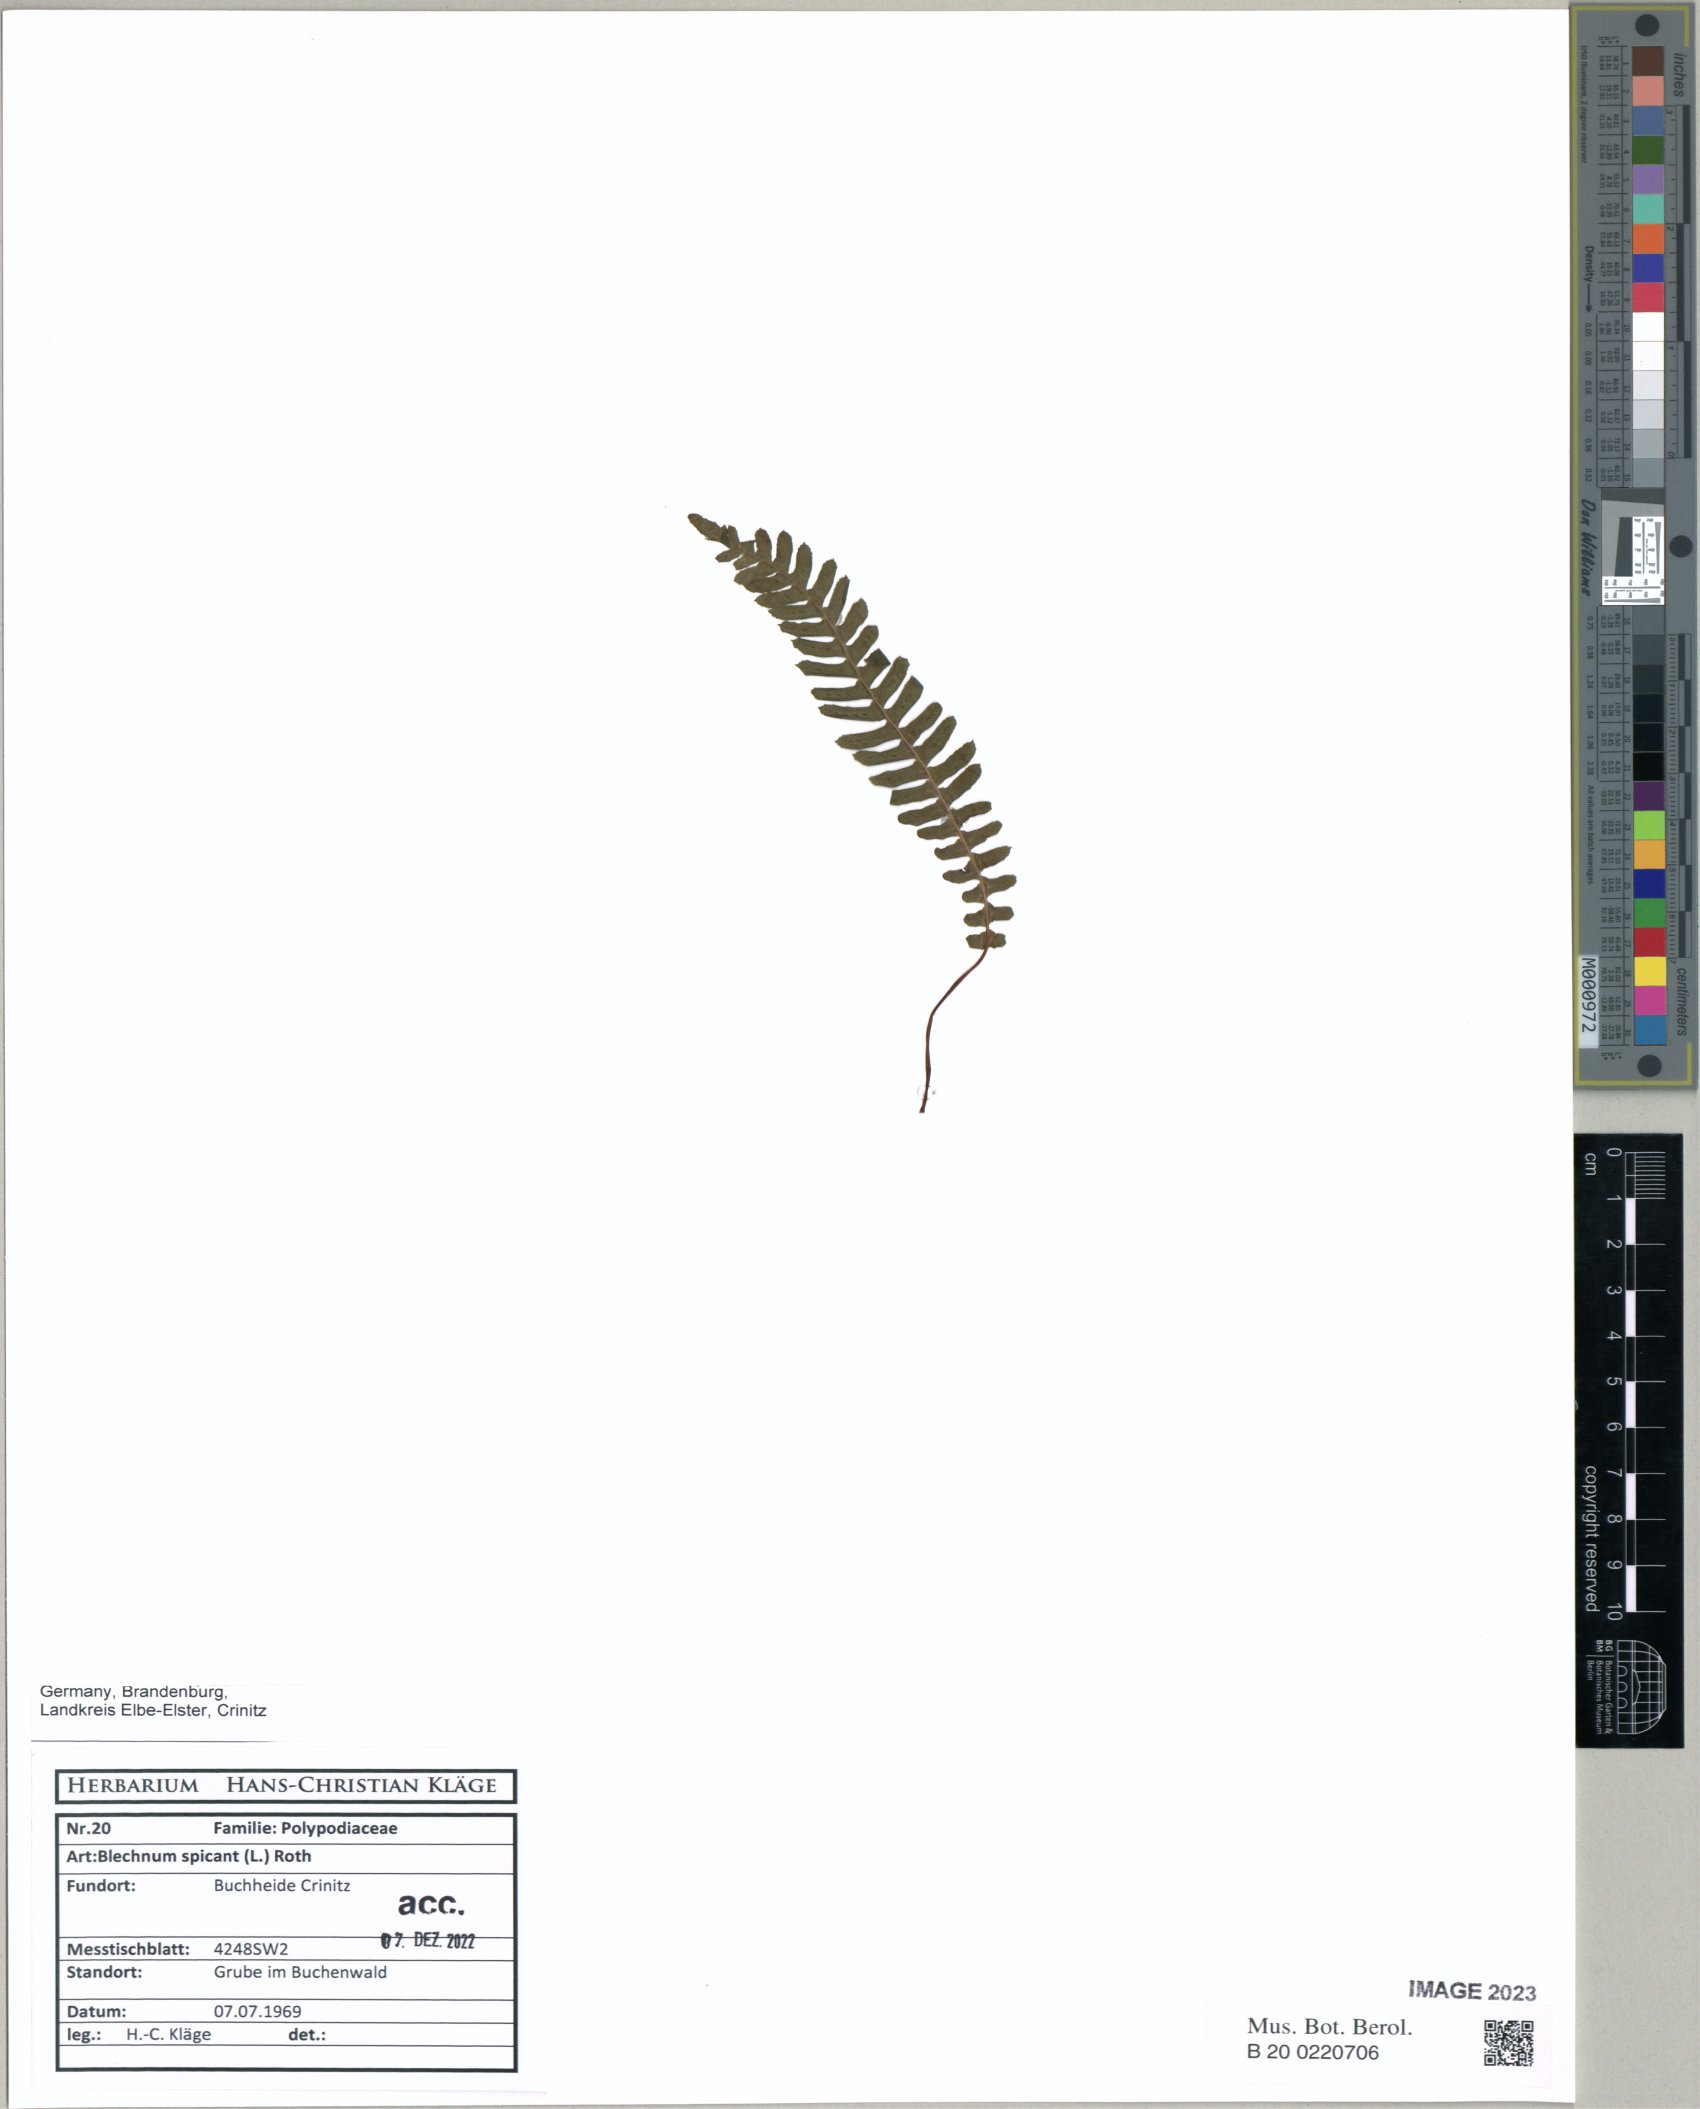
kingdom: Plantae
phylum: Tracheophyta
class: Polypodiopsida
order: Polypodiales
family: Blechnaceae
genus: Struthiopteris
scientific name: Struthiopteris spicant
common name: Deer fern
